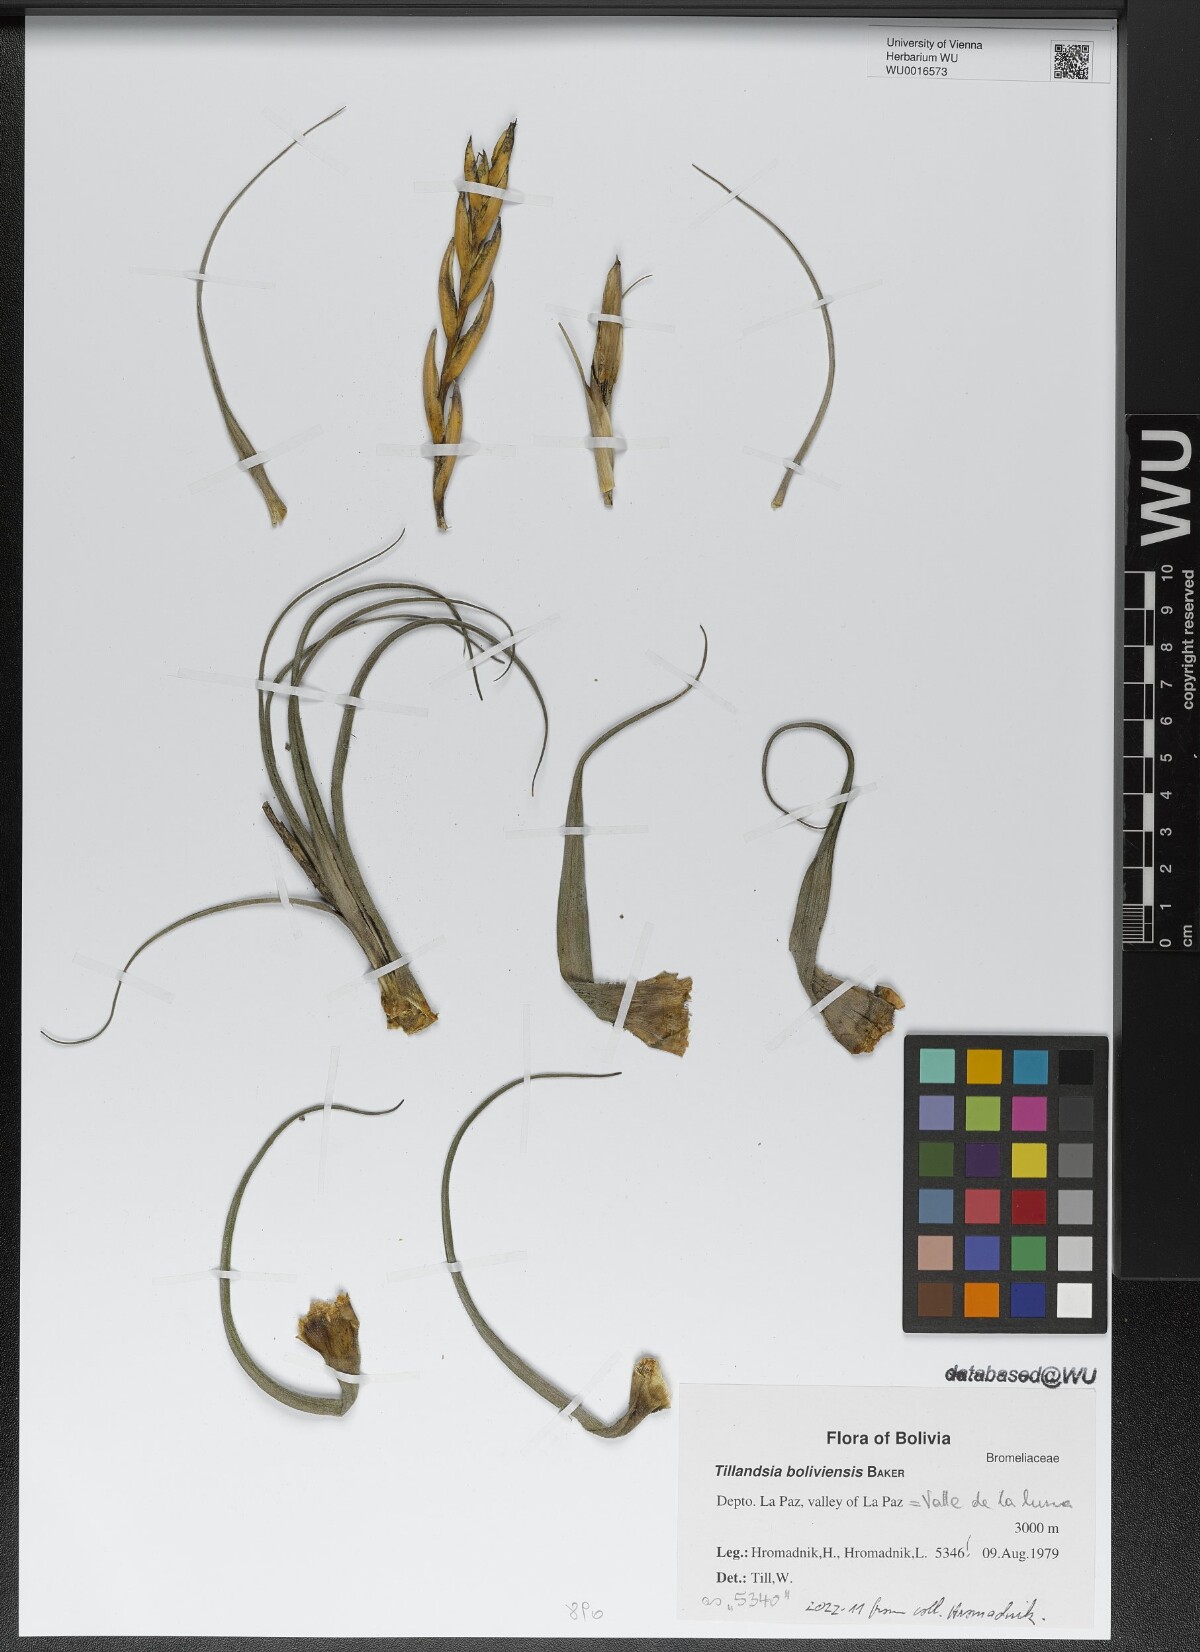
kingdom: Plantae
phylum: Tracheophyta
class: Liliopsida
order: Poales
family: Bromeliaceae
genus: Tillandsia
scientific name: Tillandsia paraensis
